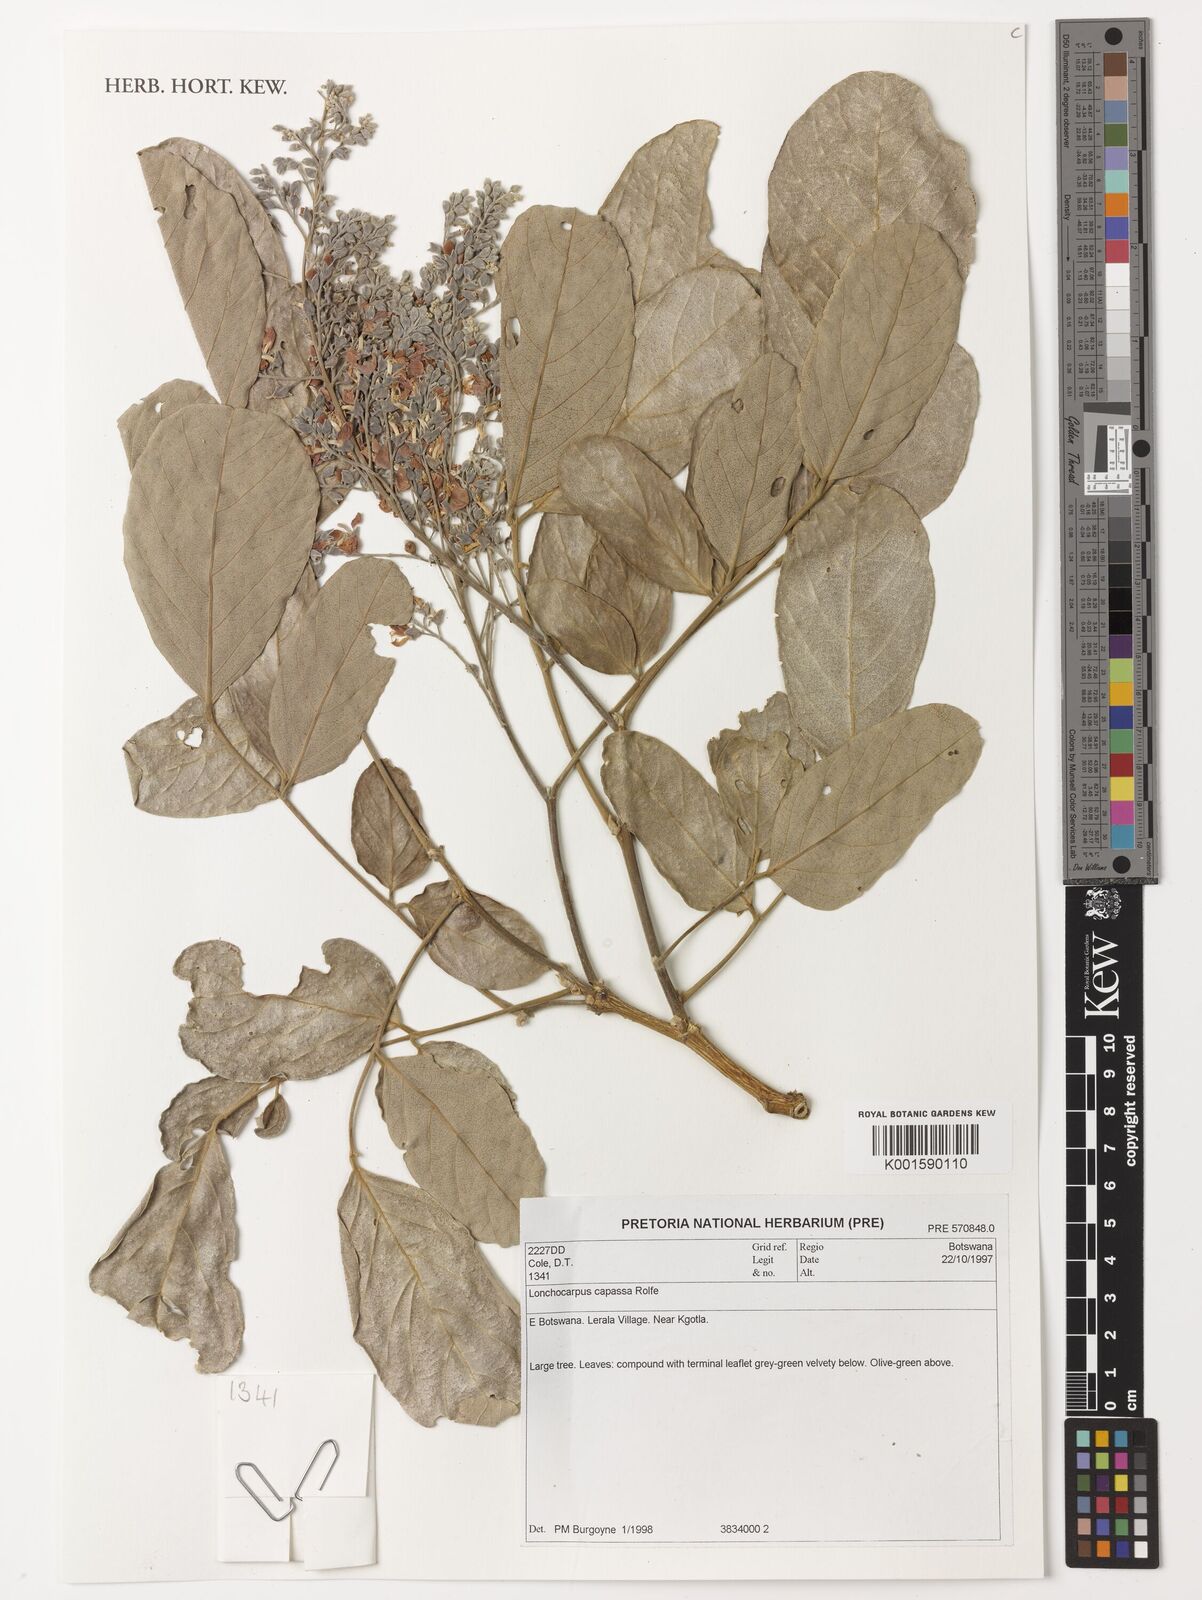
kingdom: Plantae
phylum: Tracheophyta
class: Magnoliopsida
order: Fabales
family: Fabaceae
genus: Philenoptera
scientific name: Philenoptera violacea
